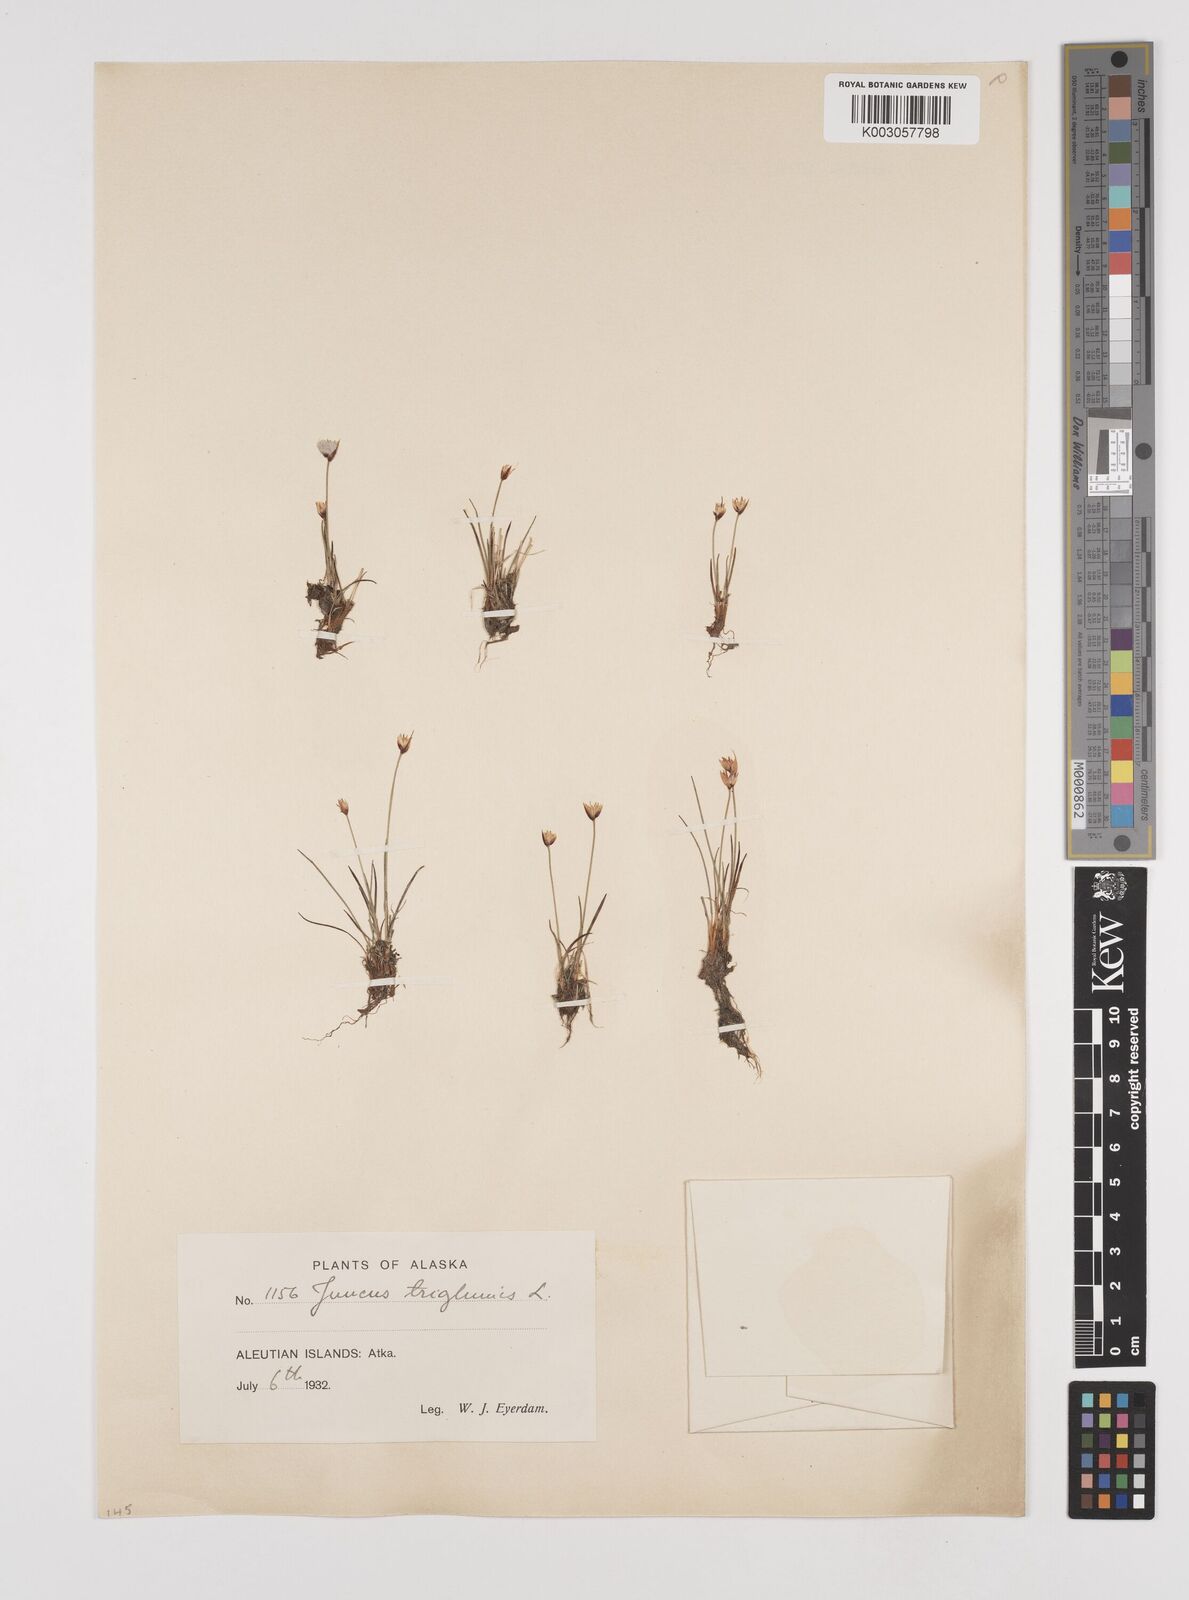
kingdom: Plantae
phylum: Tracheophyta
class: Liliopsida
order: Poales
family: Juncaceae
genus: Juncus
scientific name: Juncus triglumis
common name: Three-flowered rush
